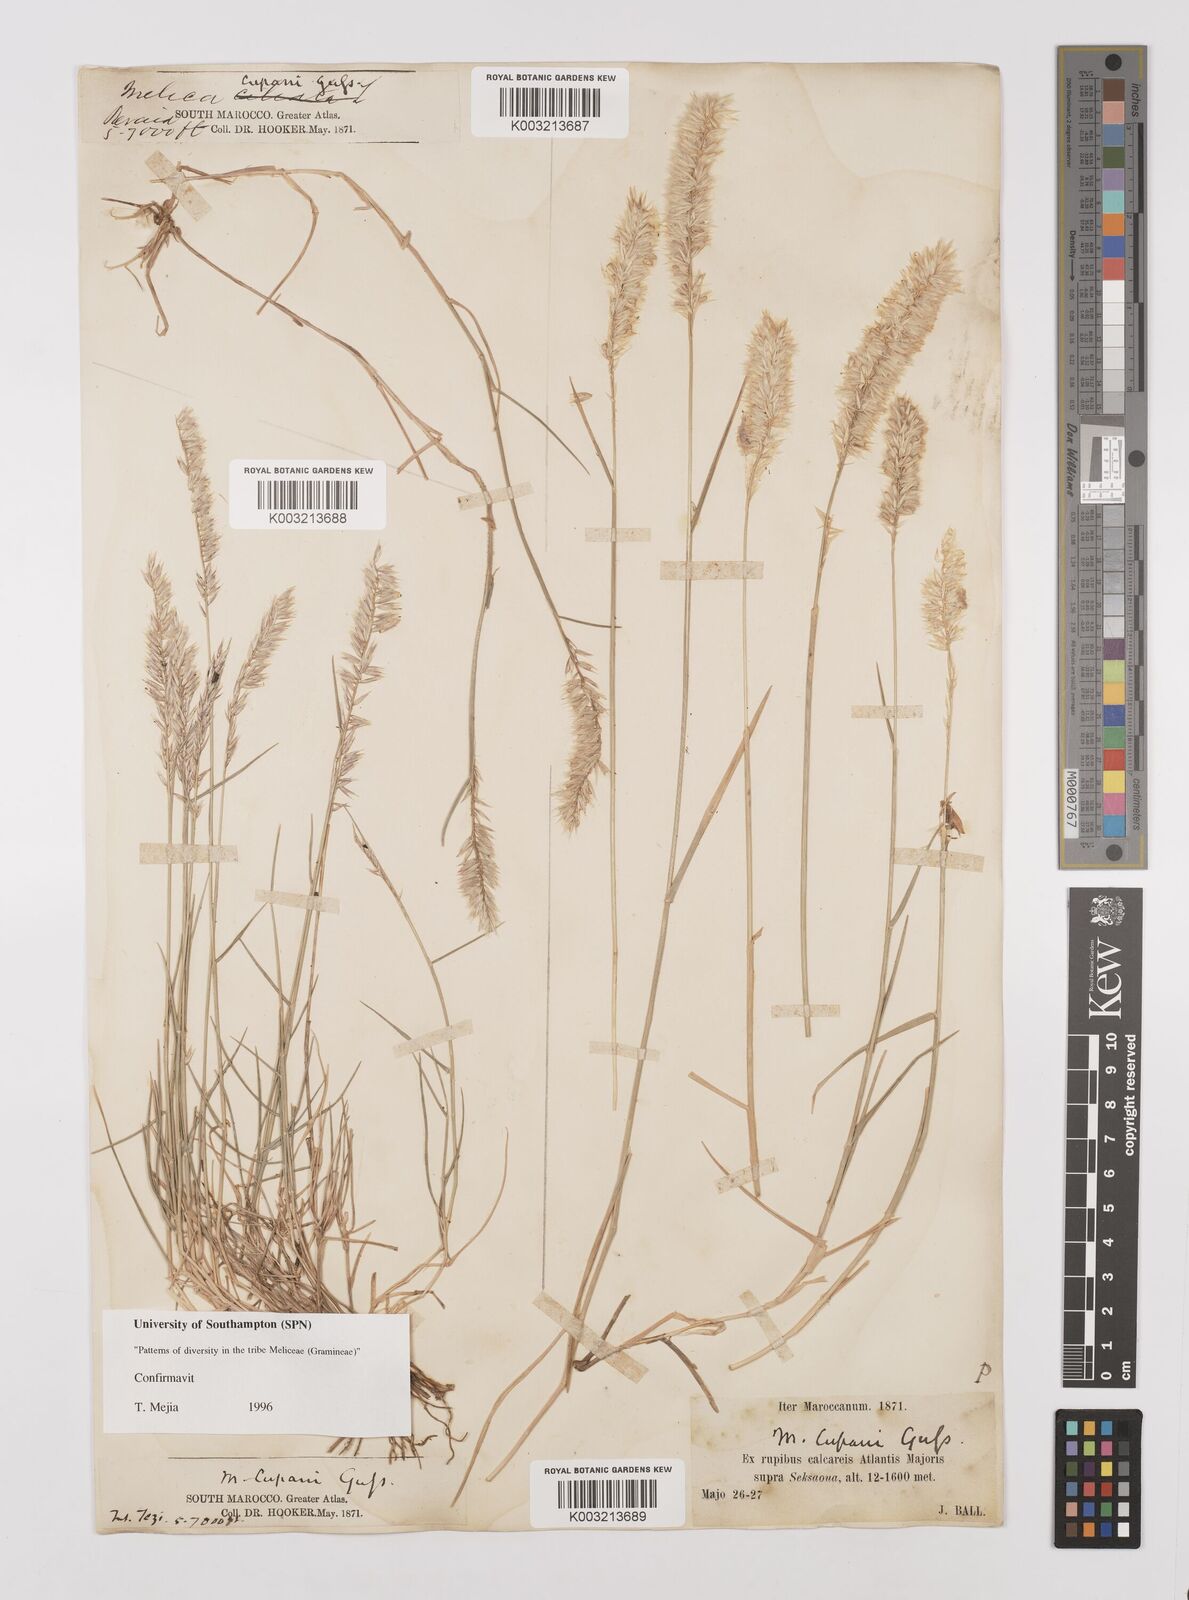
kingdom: Plantae
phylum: Tracheophyta
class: Liliopsida
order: Poales
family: Poaceae
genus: Melica
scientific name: Melica cupani
